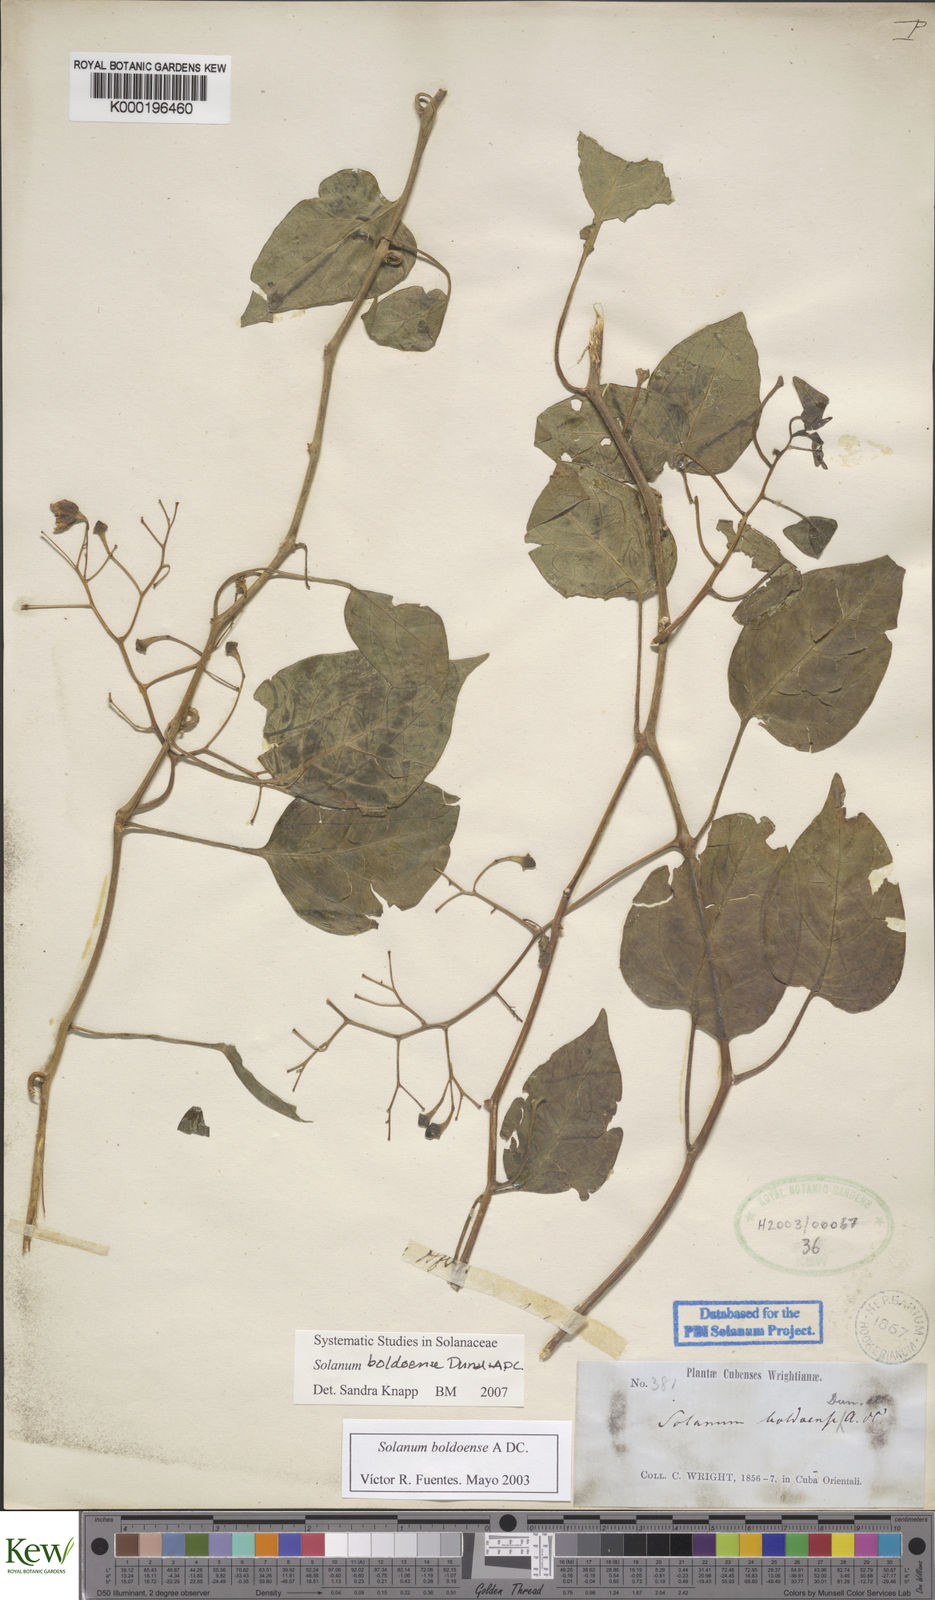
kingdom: Plantae
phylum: Tracheophyta
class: Magnoliopsida
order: Solanales
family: Solanaceae
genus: Solanum
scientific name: Solanum boldoense
